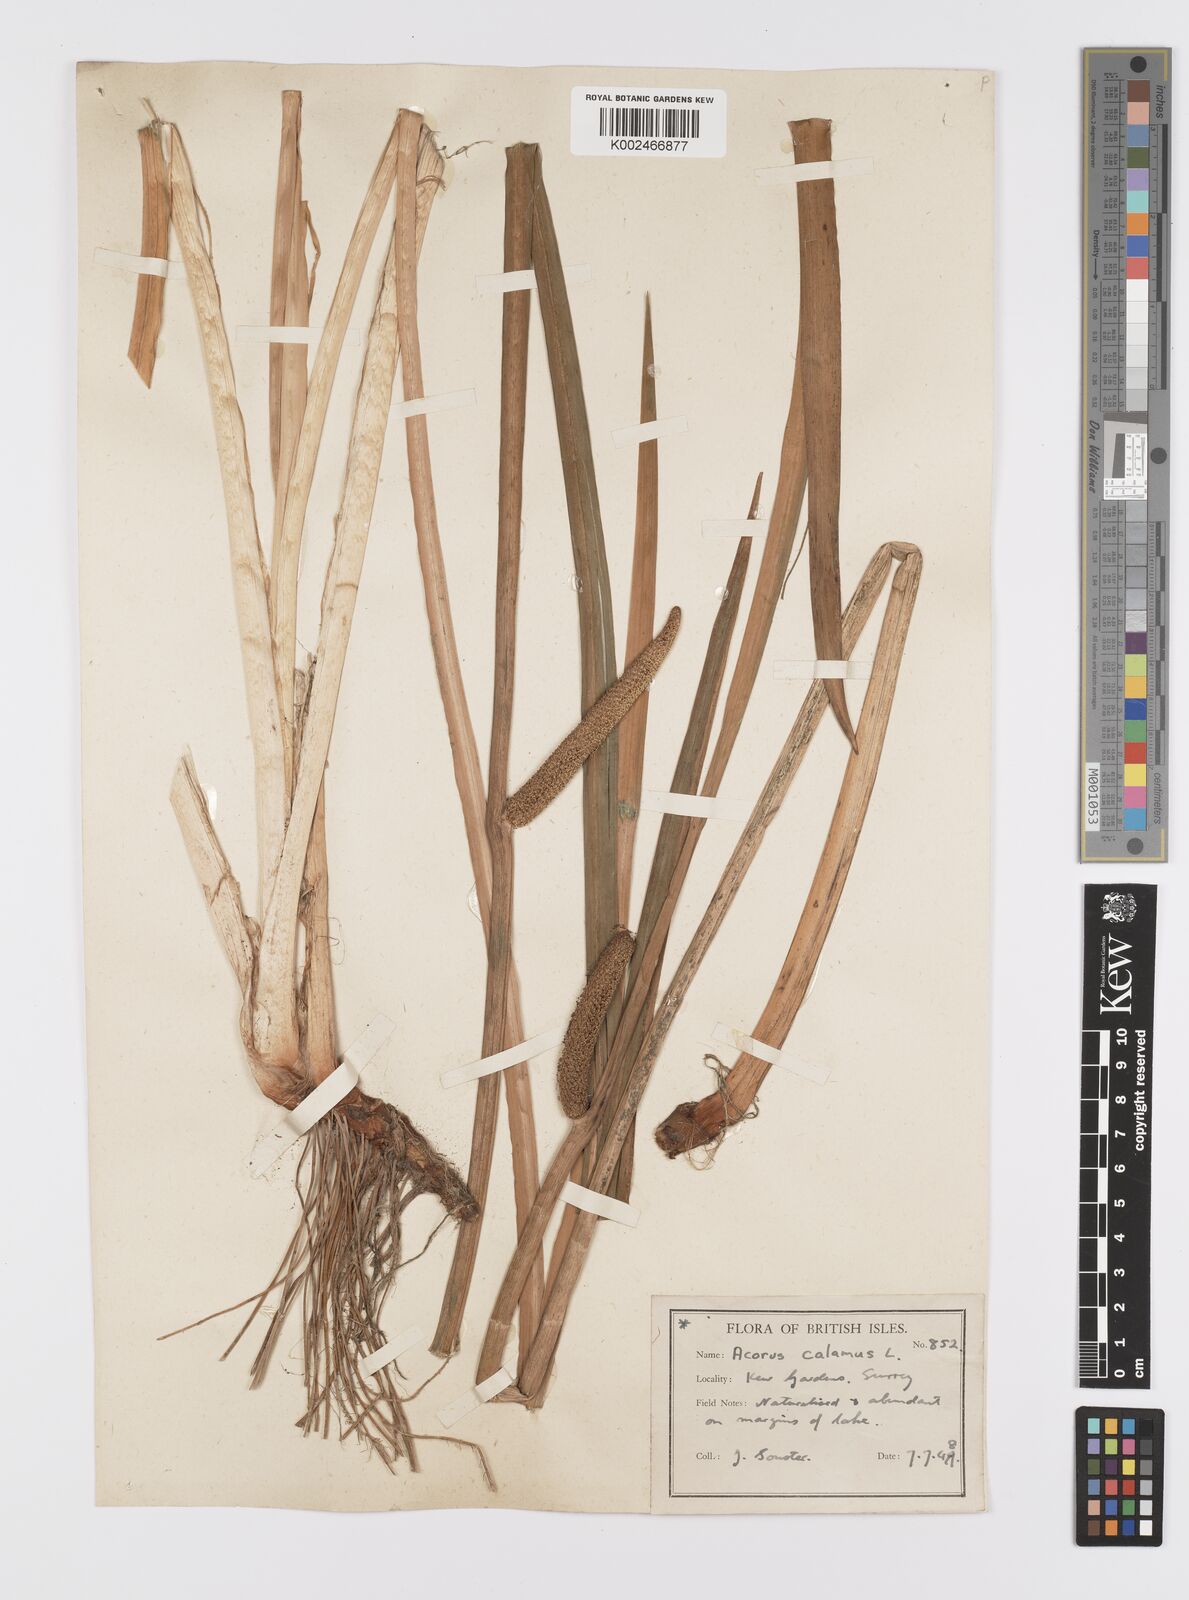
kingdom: Plantae
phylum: Tracheophyta
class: Liliopsida
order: Acorales
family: Acoraceae
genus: Acorus
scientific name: Acorus calamus
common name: Sweet-flag
